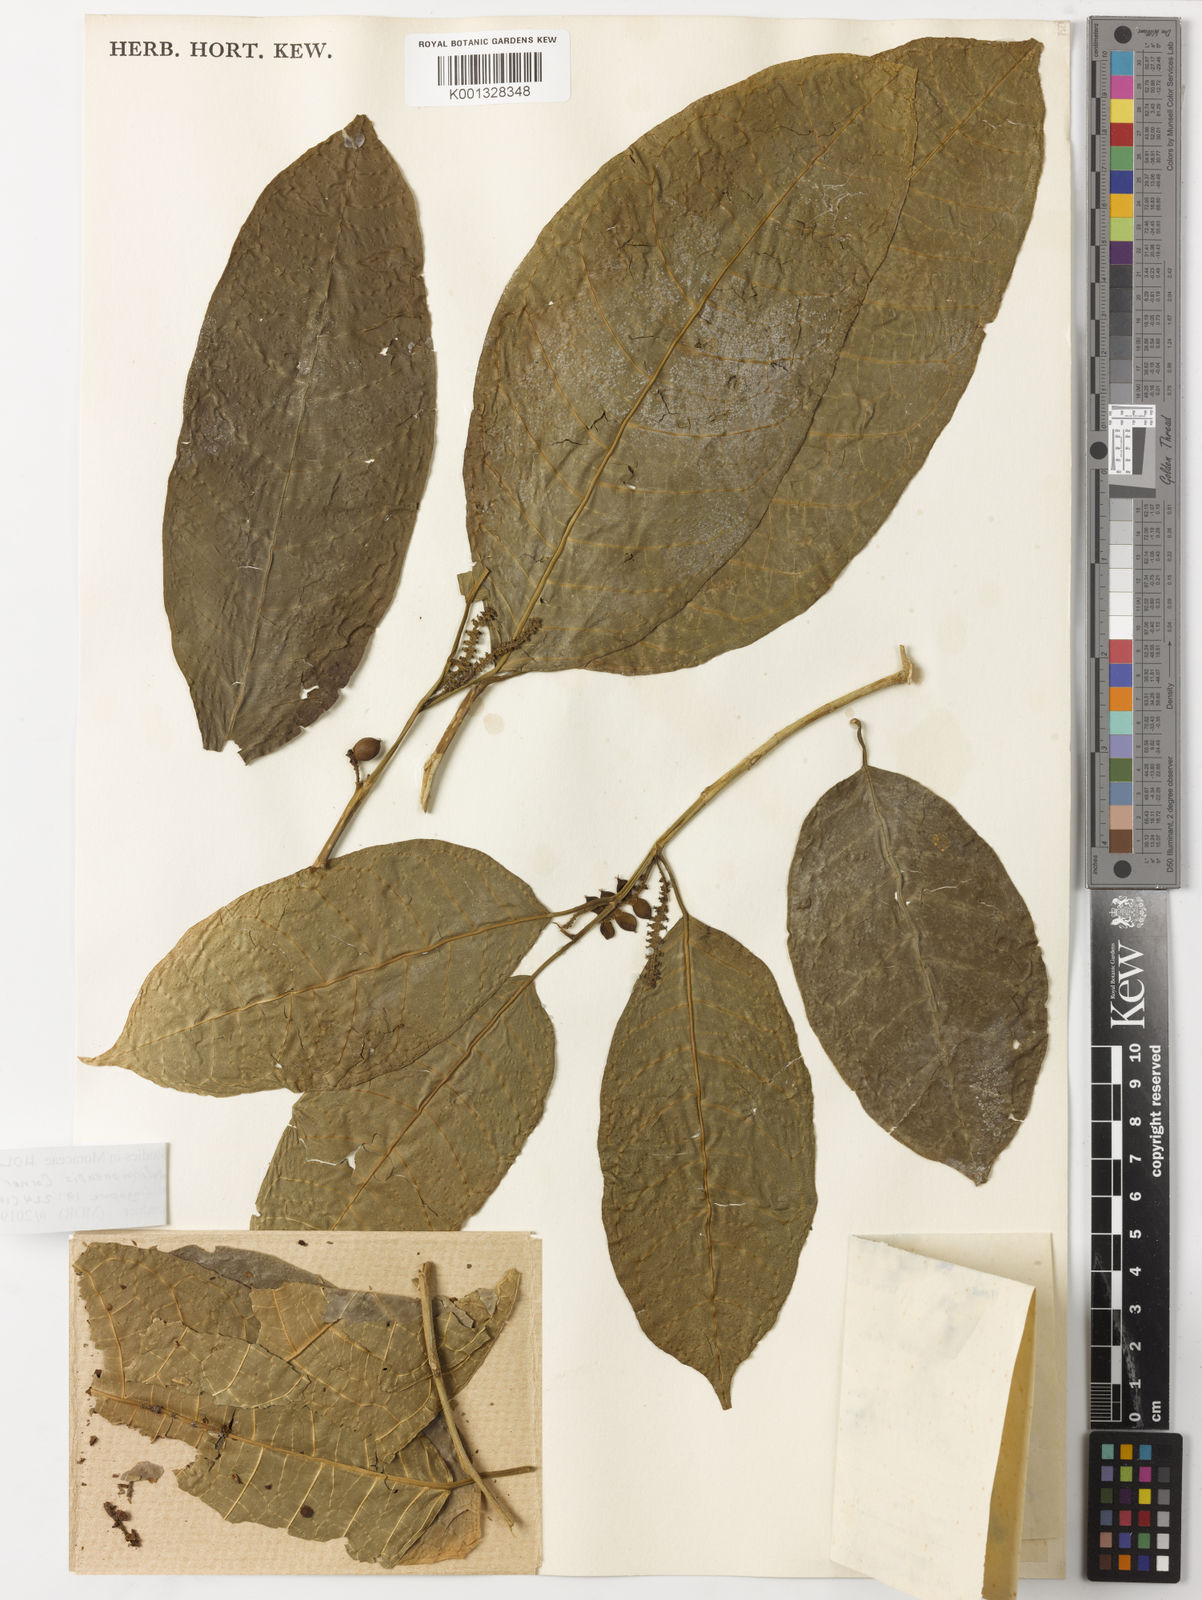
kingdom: Plantae
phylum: Tracheophyta
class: Magnoliopsida
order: Rosales
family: Moraceae
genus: Paratrophis
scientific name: Paratrophis solomonensis
